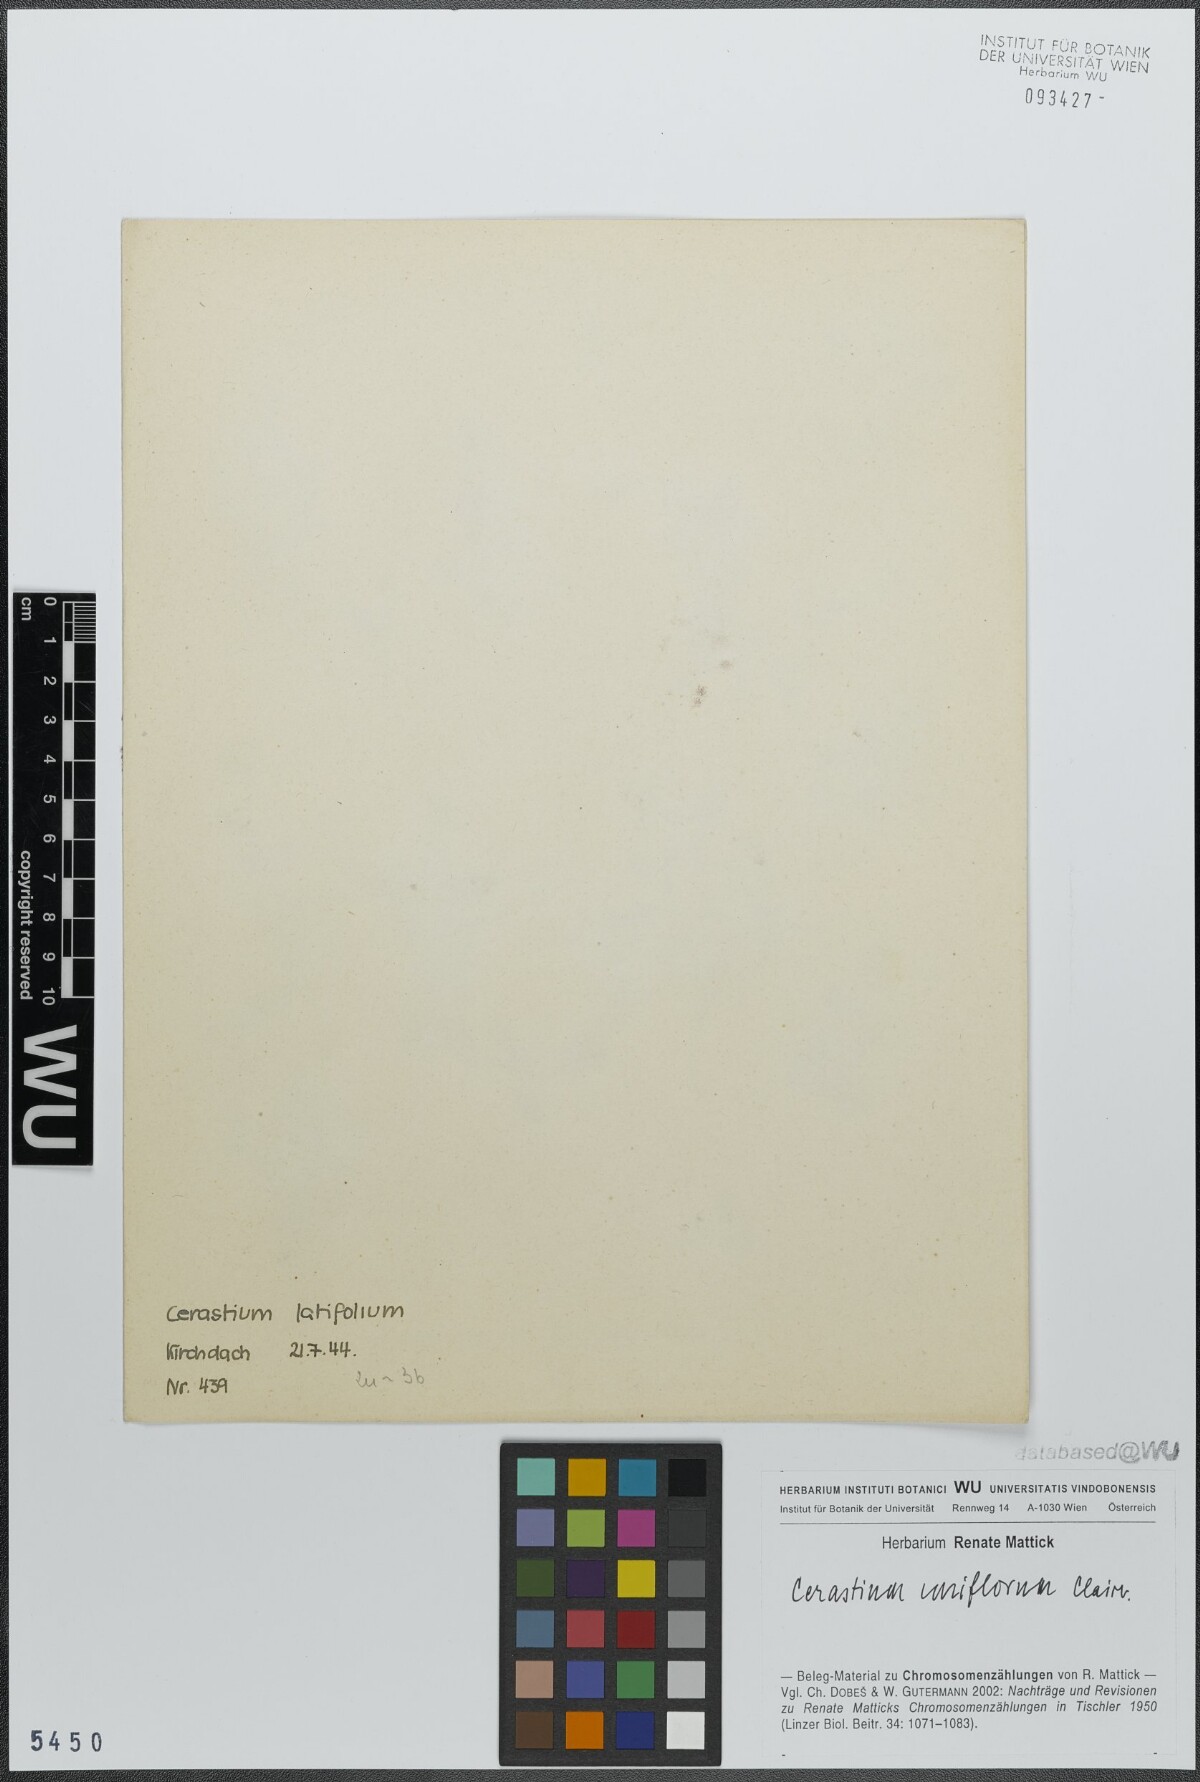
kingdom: Plantae
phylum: Tracheophyta
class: Magnoliopsida
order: Caryophyllales
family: Caryophyllaceae
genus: Cerastium
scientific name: Cerastium uniflorum
